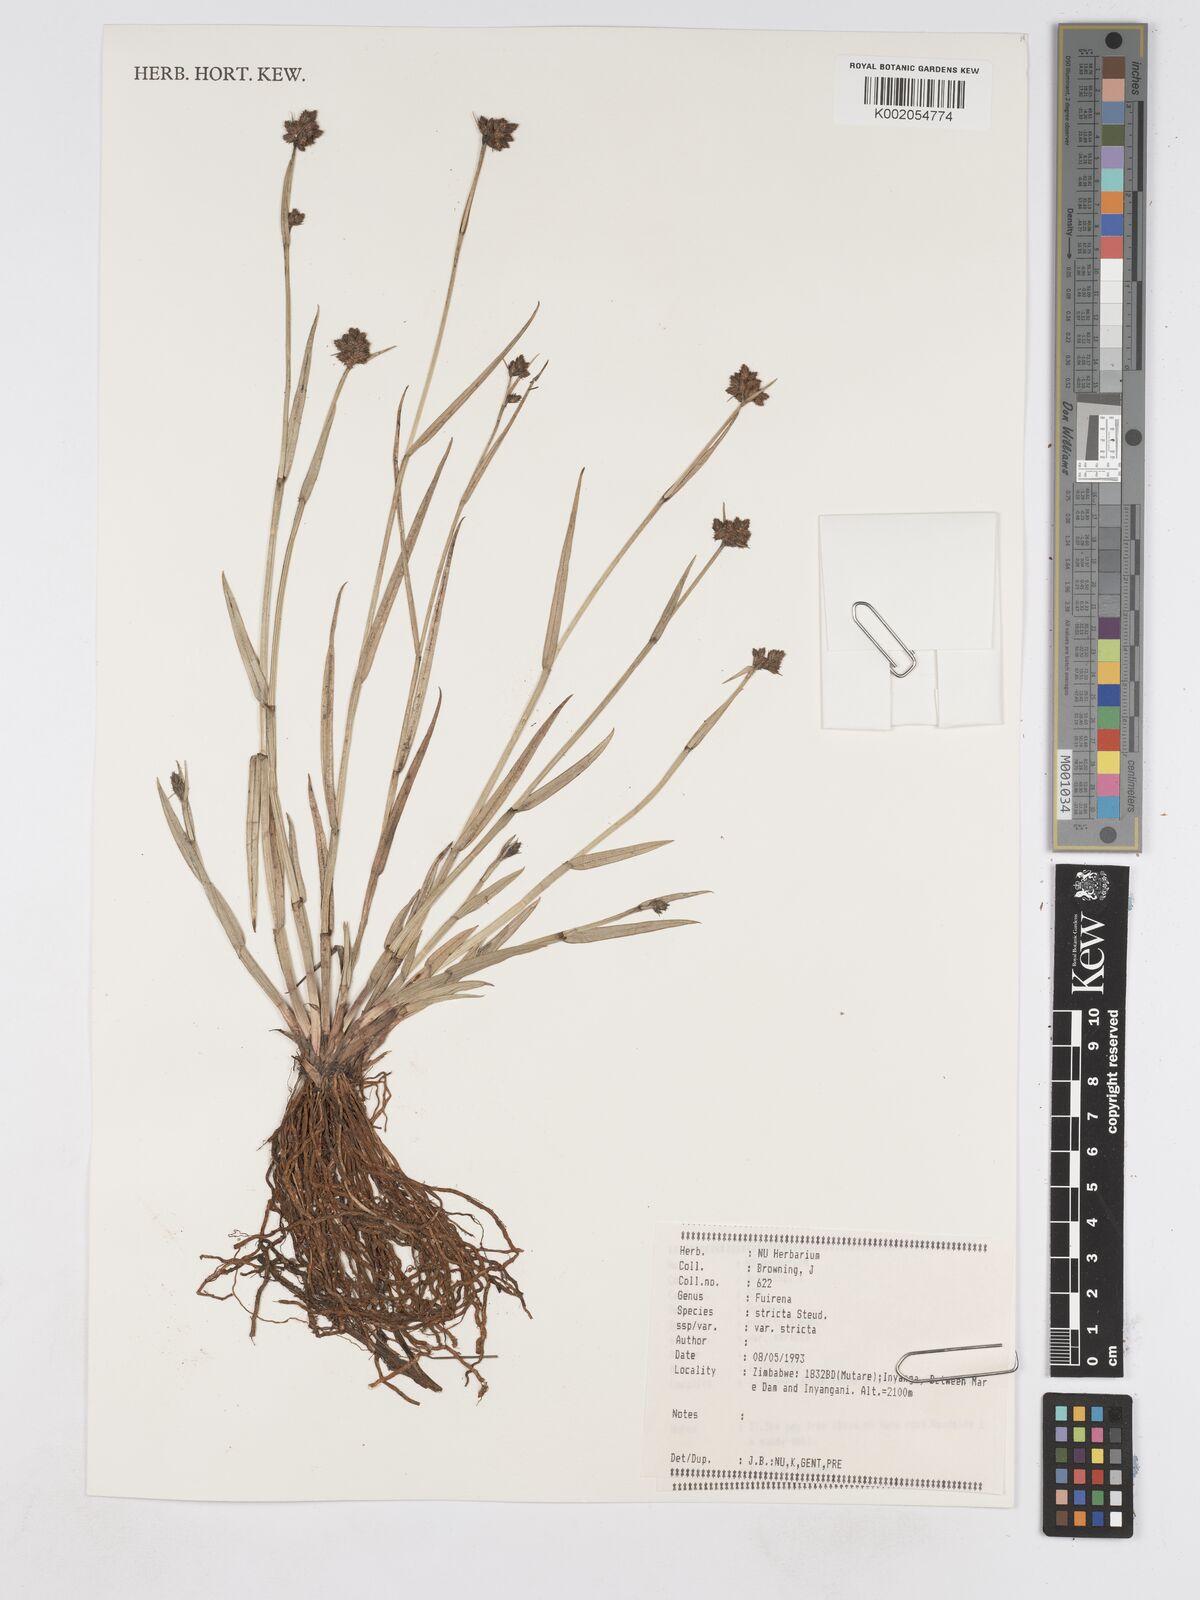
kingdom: Plantae
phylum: Tracheophyta
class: Liliopsida
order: Poales
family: Cyperaceae
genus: Fuirena
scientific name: Fuirena stricta
